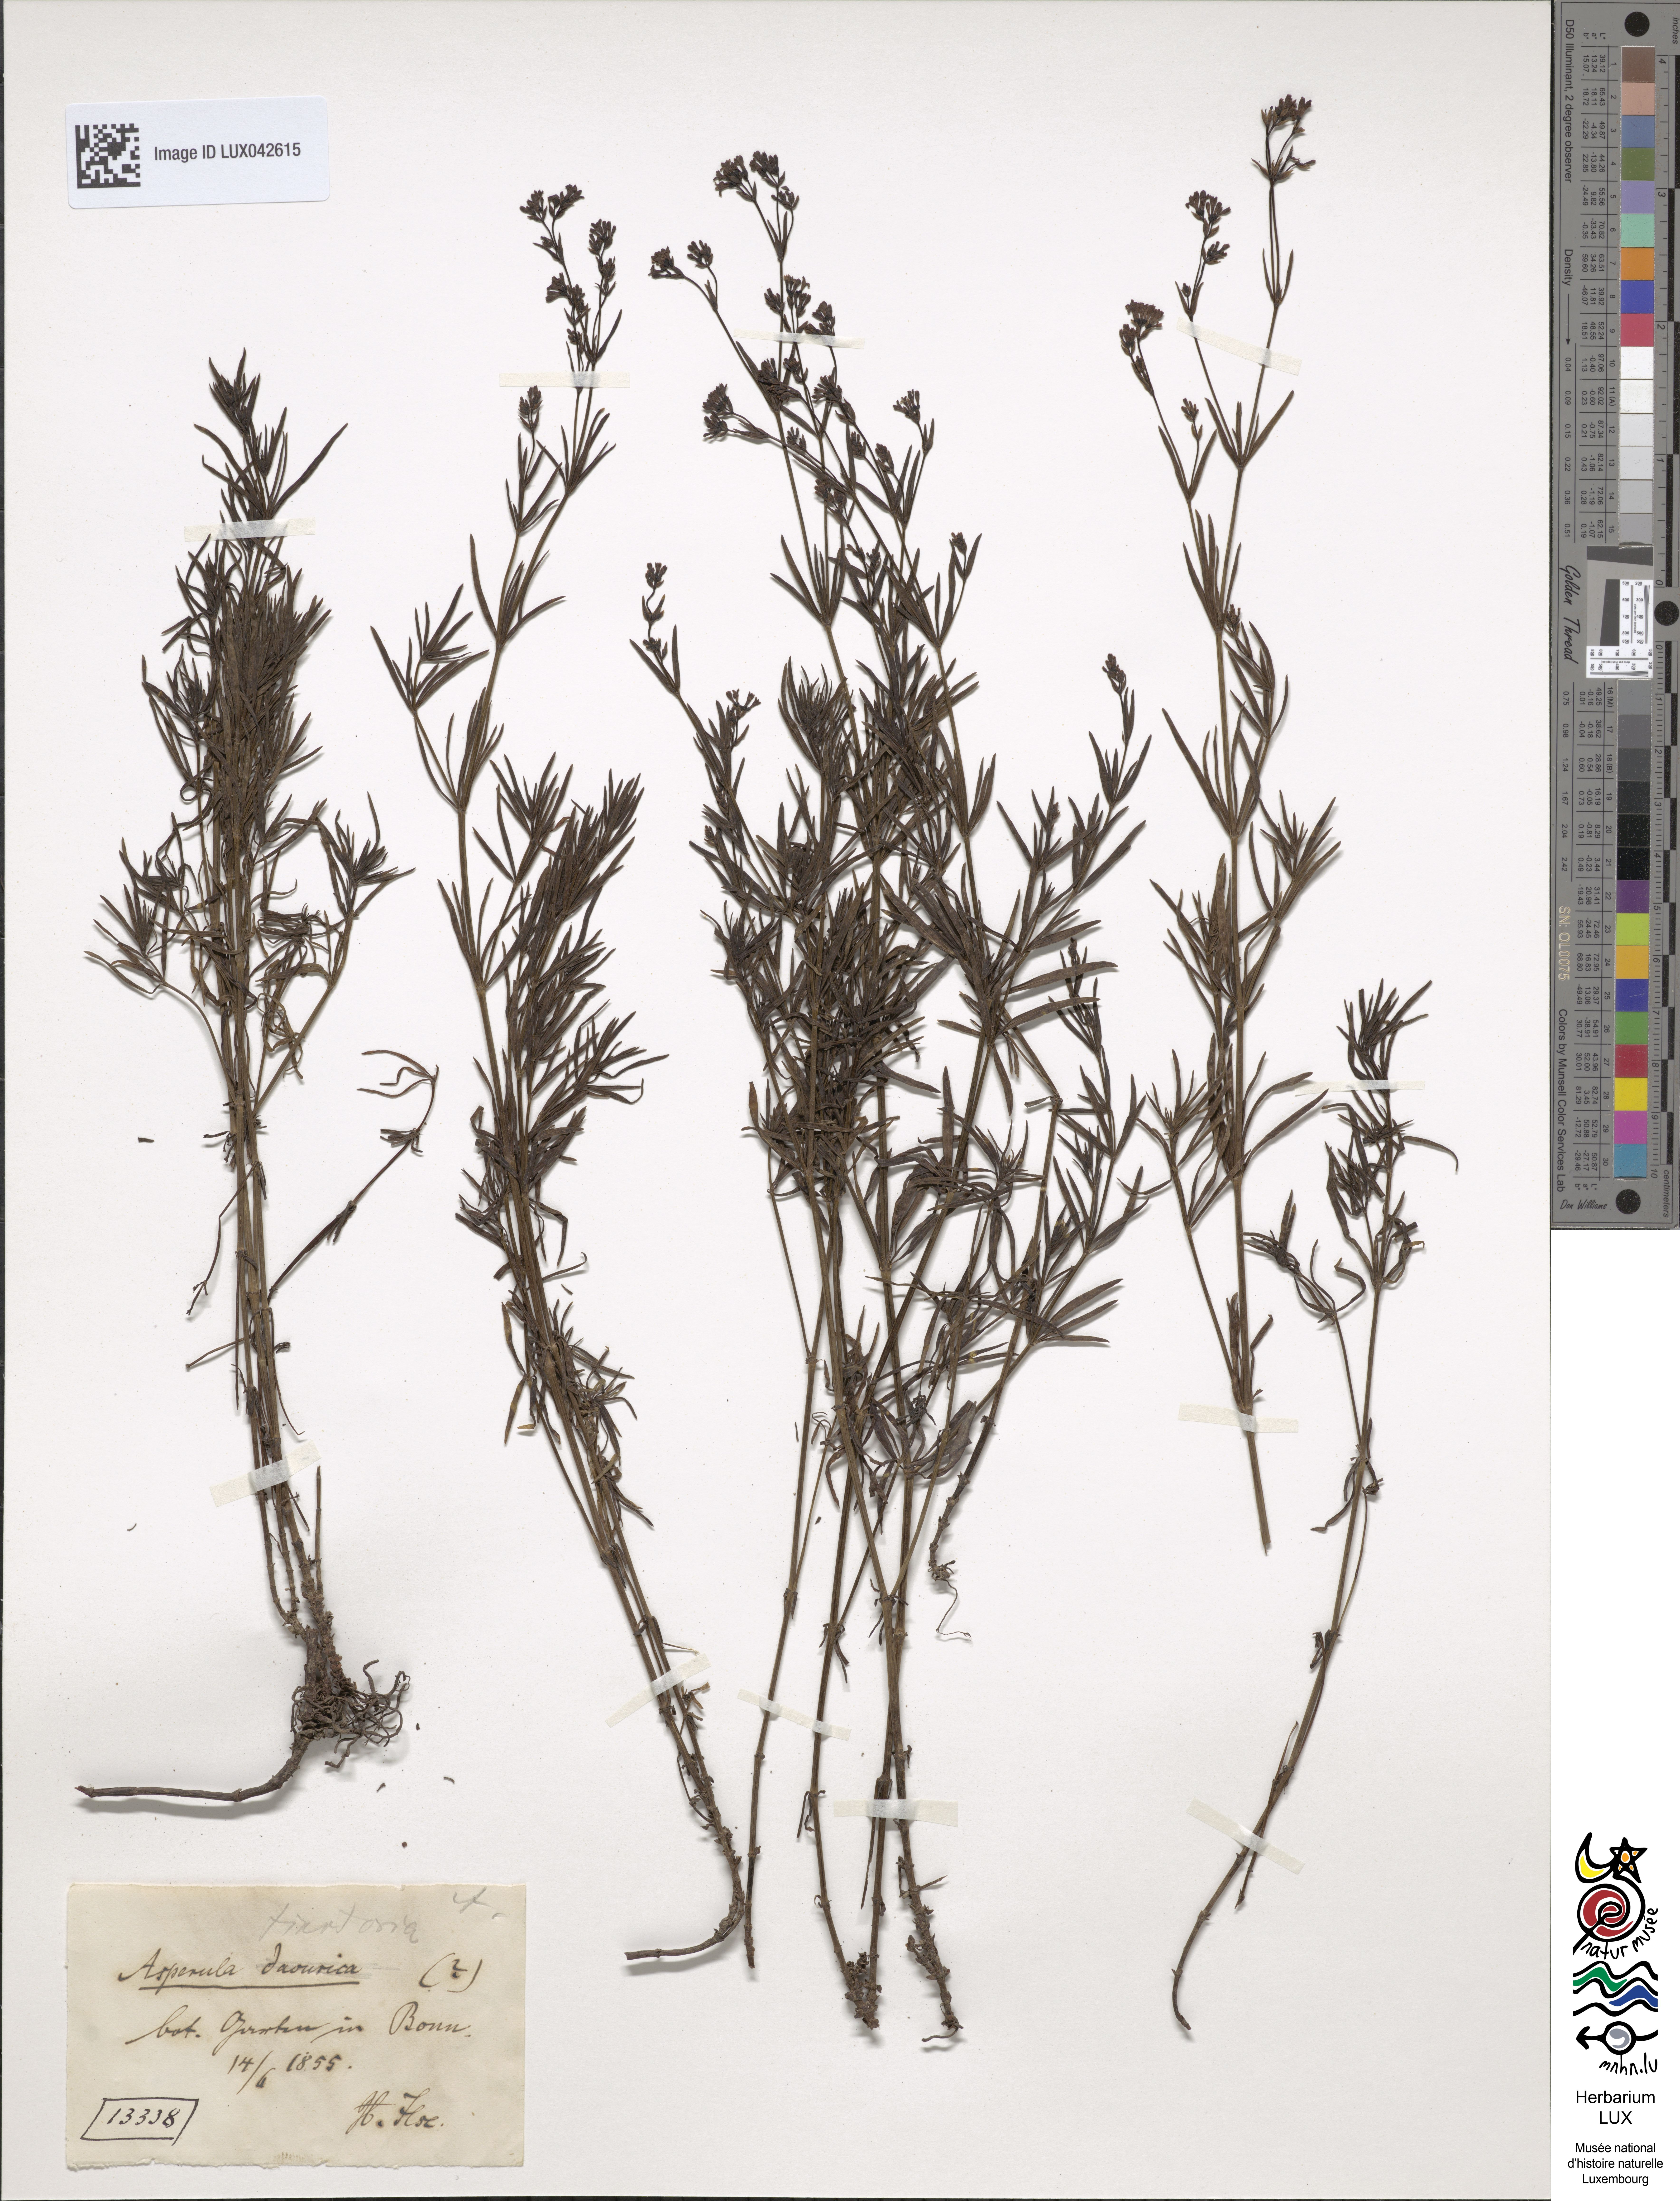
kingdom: Plantae
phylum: Tracheophyta
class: Magnoliopsida
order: Gentianales
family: Rubiaceae
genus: Asperula
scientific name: Asperula tinctoria
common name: Dyer's woodruff
